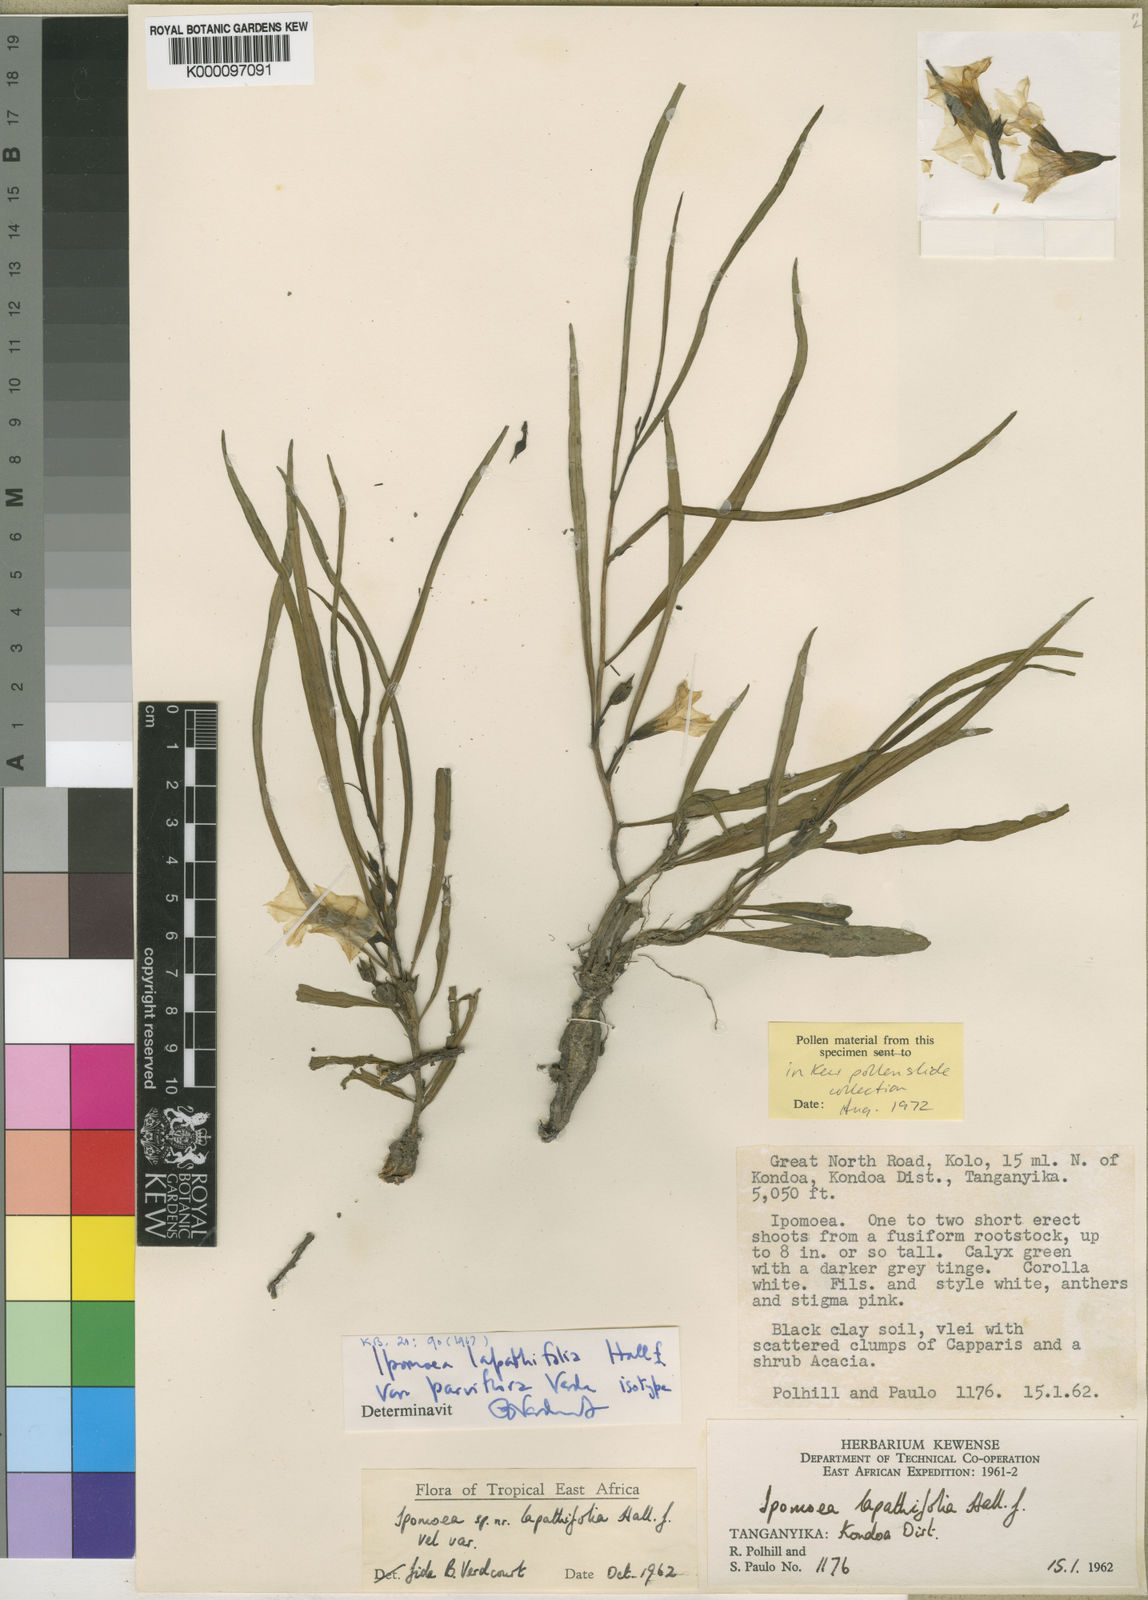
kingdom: Plantae
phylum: Tracheophyta
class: Magnoliopsida
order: Solanales
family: Convolvulaceae
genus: Ipomoea
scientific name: Ipomoea lapathifolia
